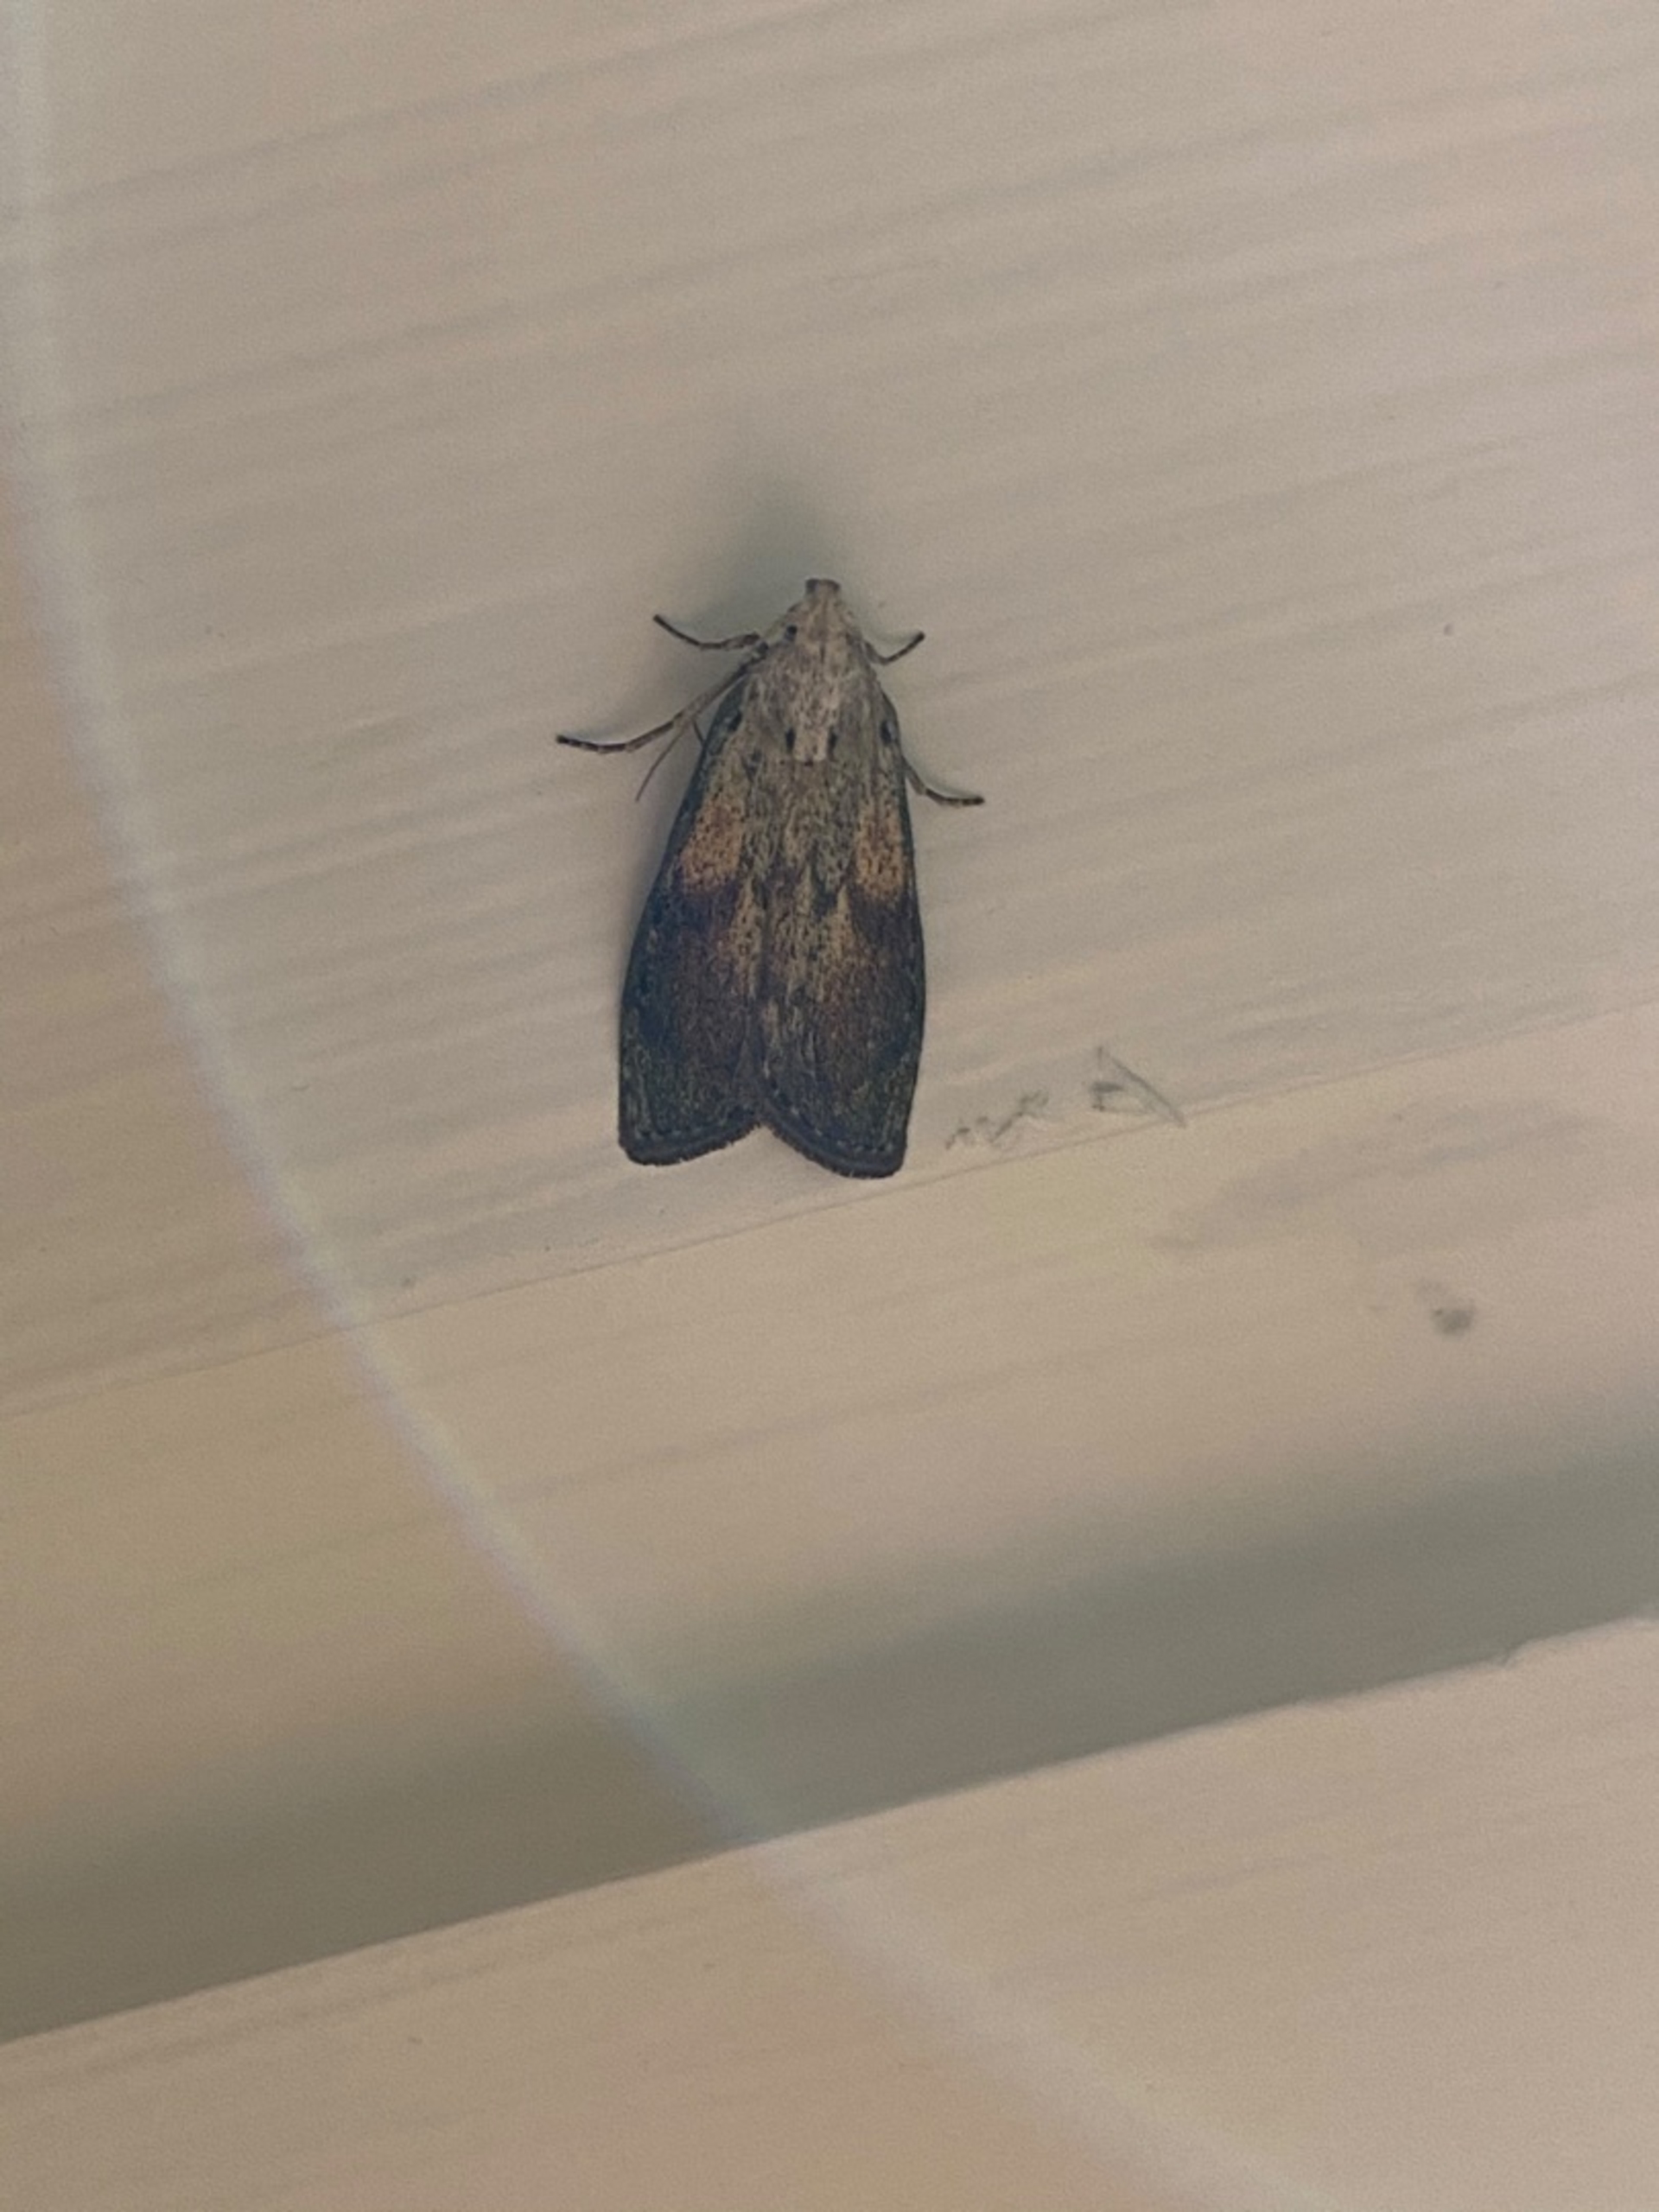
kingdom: Animalia
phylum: Arthropoda
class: Insecta
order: Lepidoptera
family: Pyralidae
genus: Aphomia
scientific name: Aphomia sociella
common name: Humlevoksmøl
